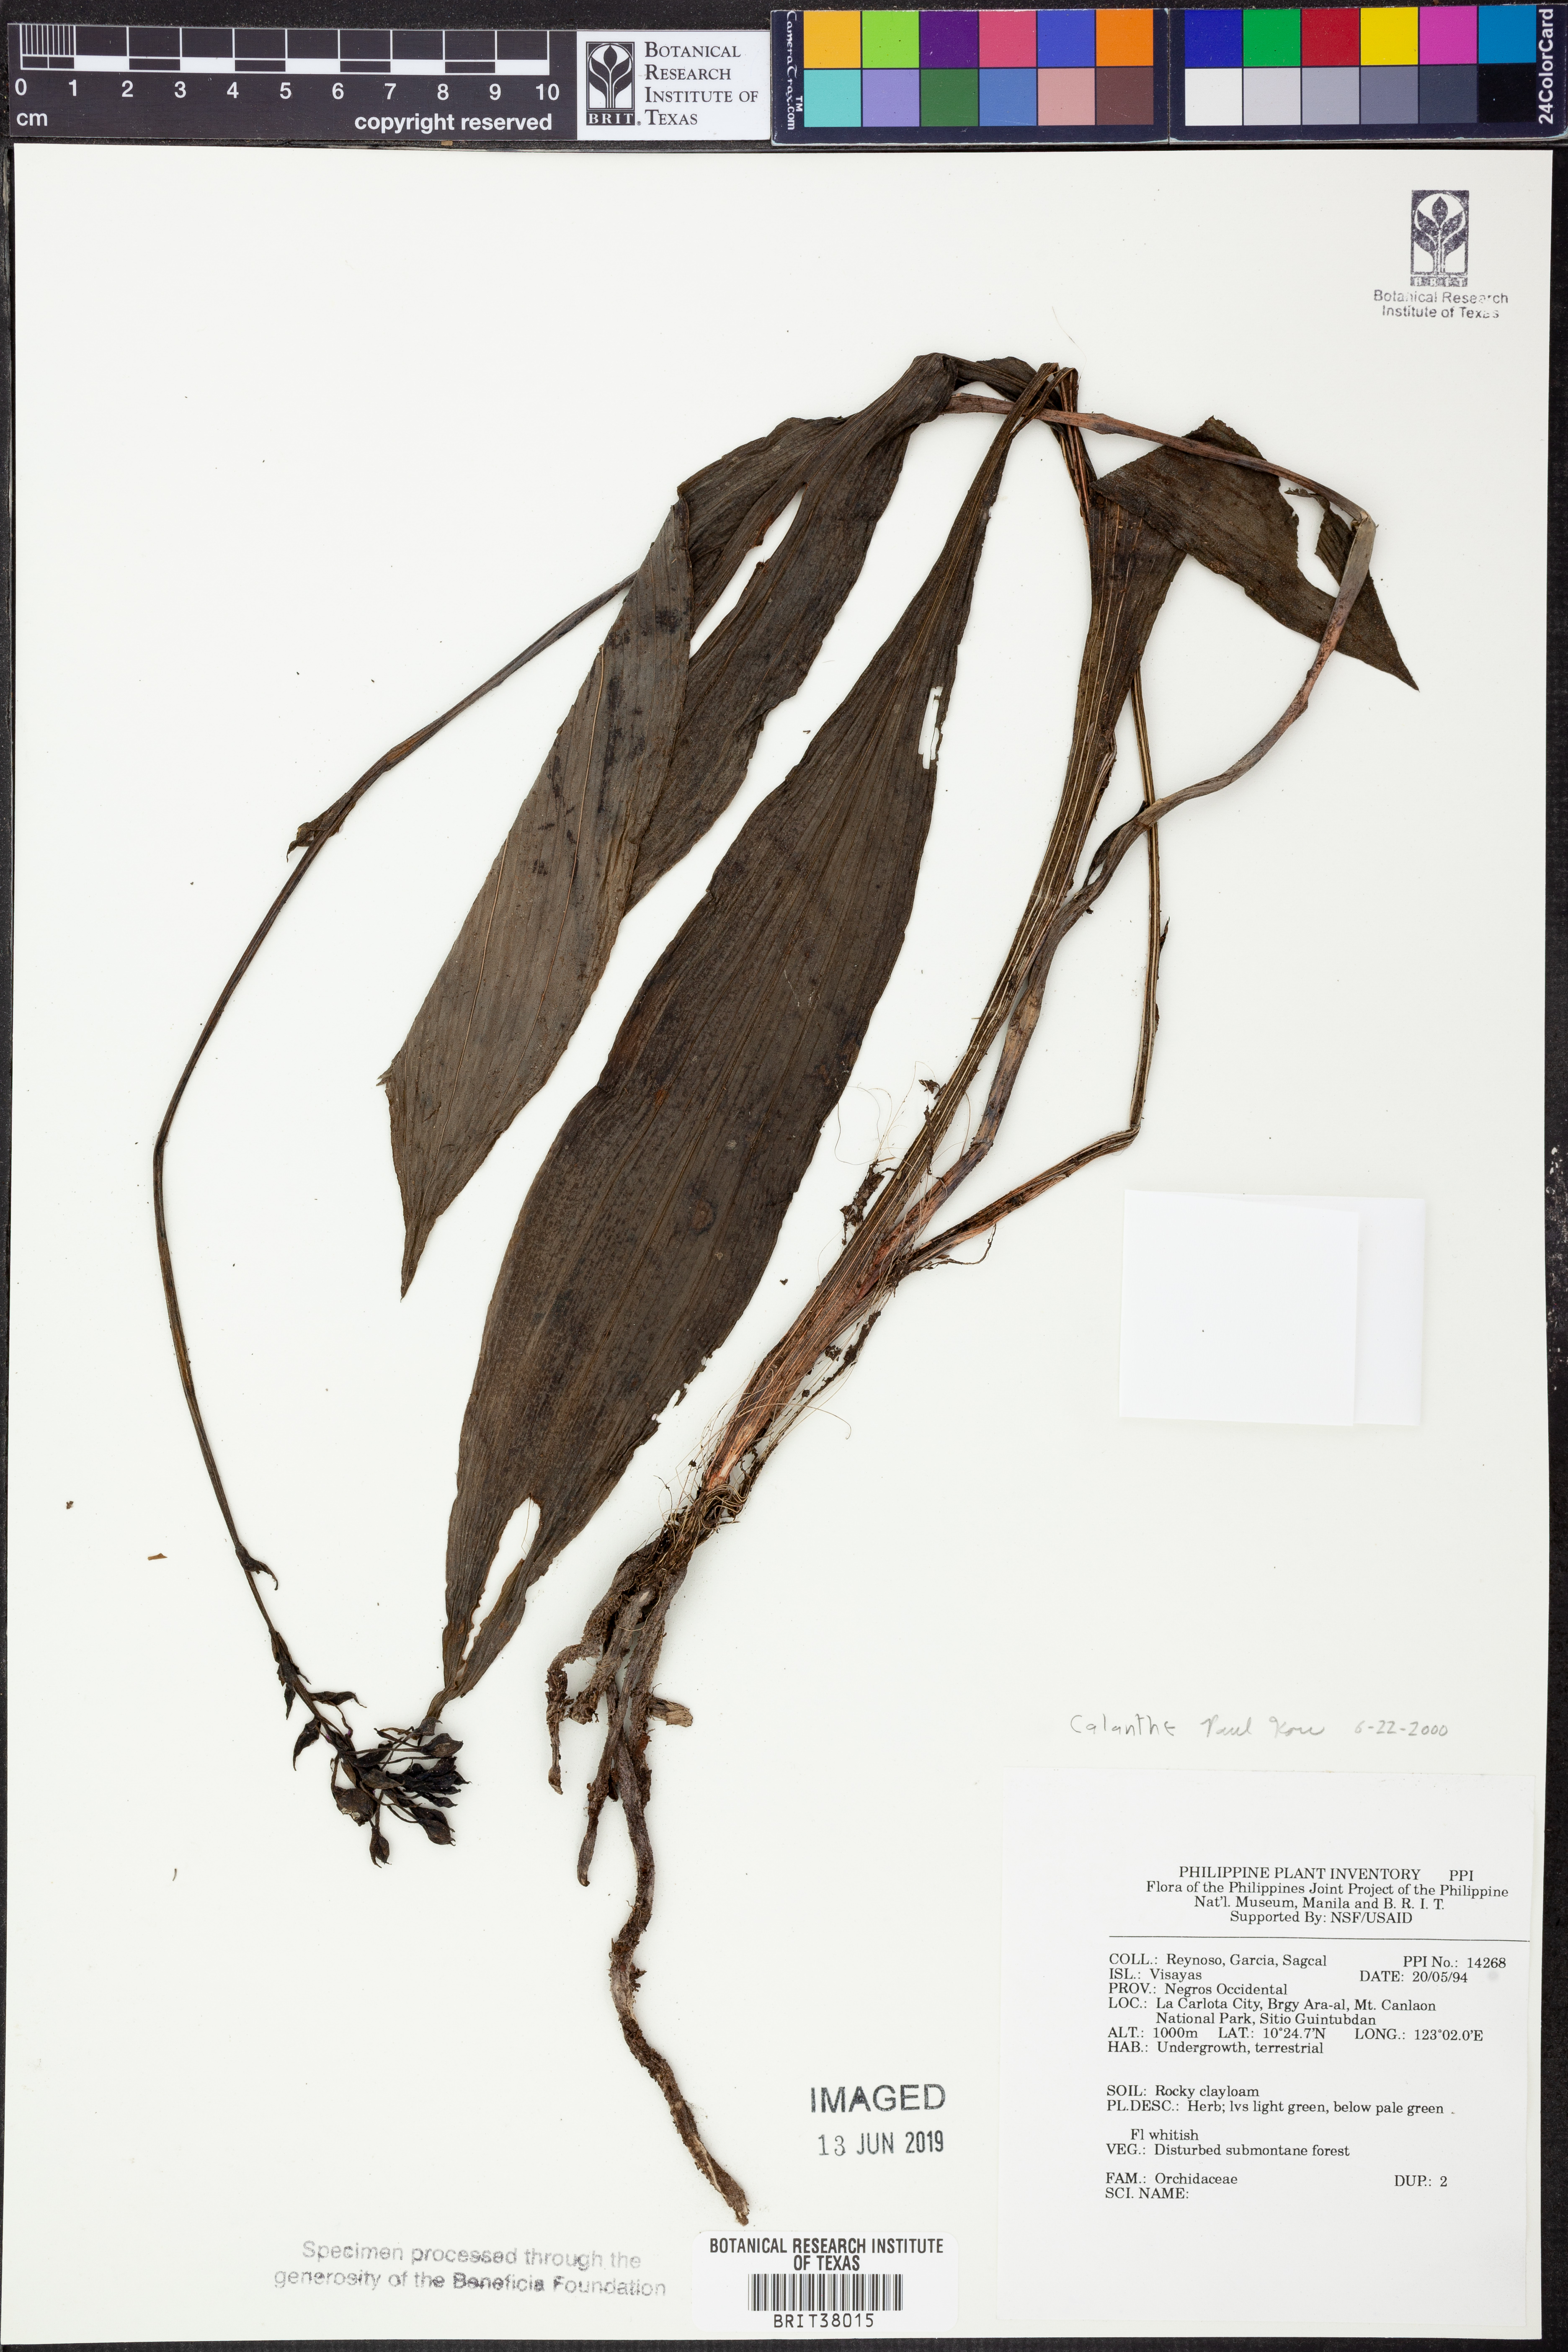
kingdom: Plantae
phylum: Tracheophyta
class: Liliopsida
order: Asparagales
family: Orchidaceae
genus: Calanthe
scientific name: Calanthe
